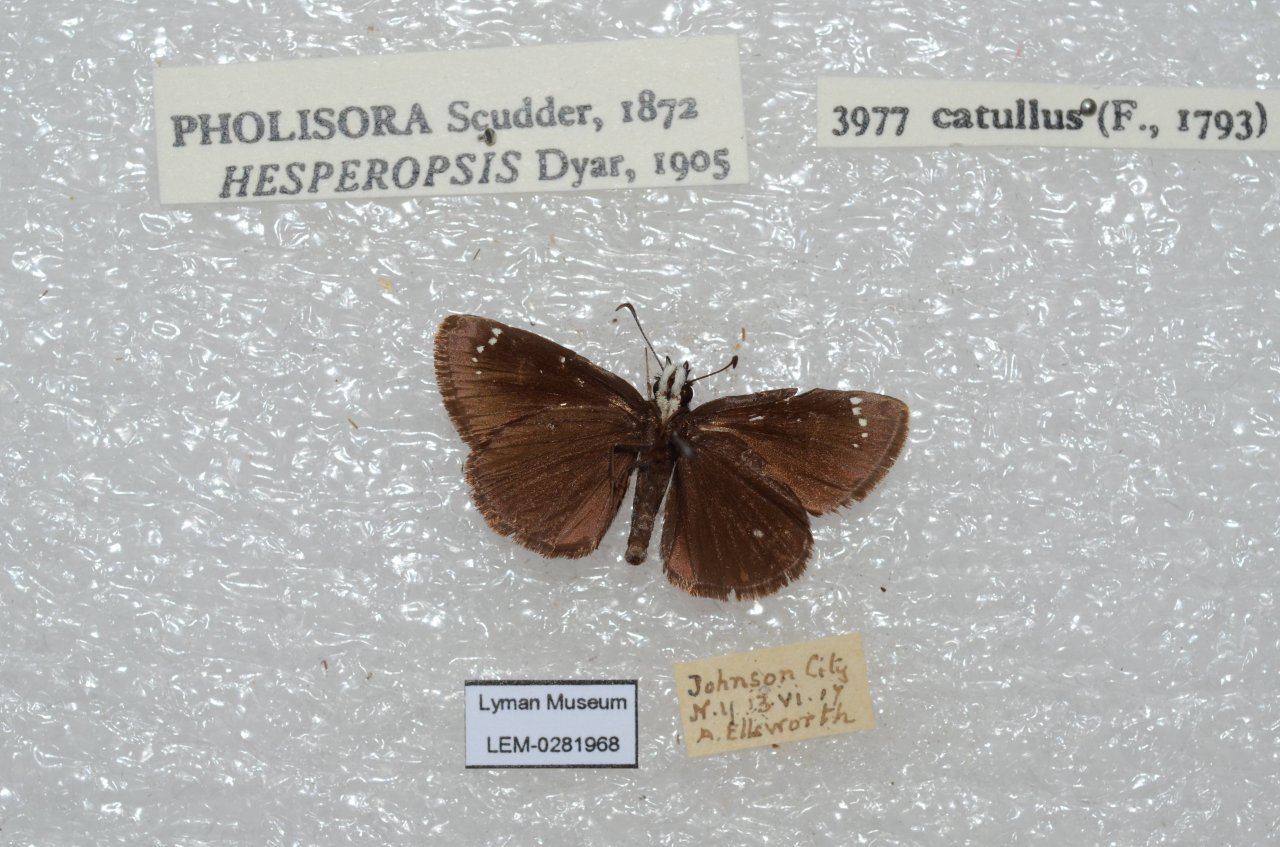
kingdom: Animalia
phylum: Arthropoda
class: Insecta
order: Lepidoptera
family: Hesperiidae
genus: Pholisora
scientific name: Pholisora catullus
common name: Common Sootywing
